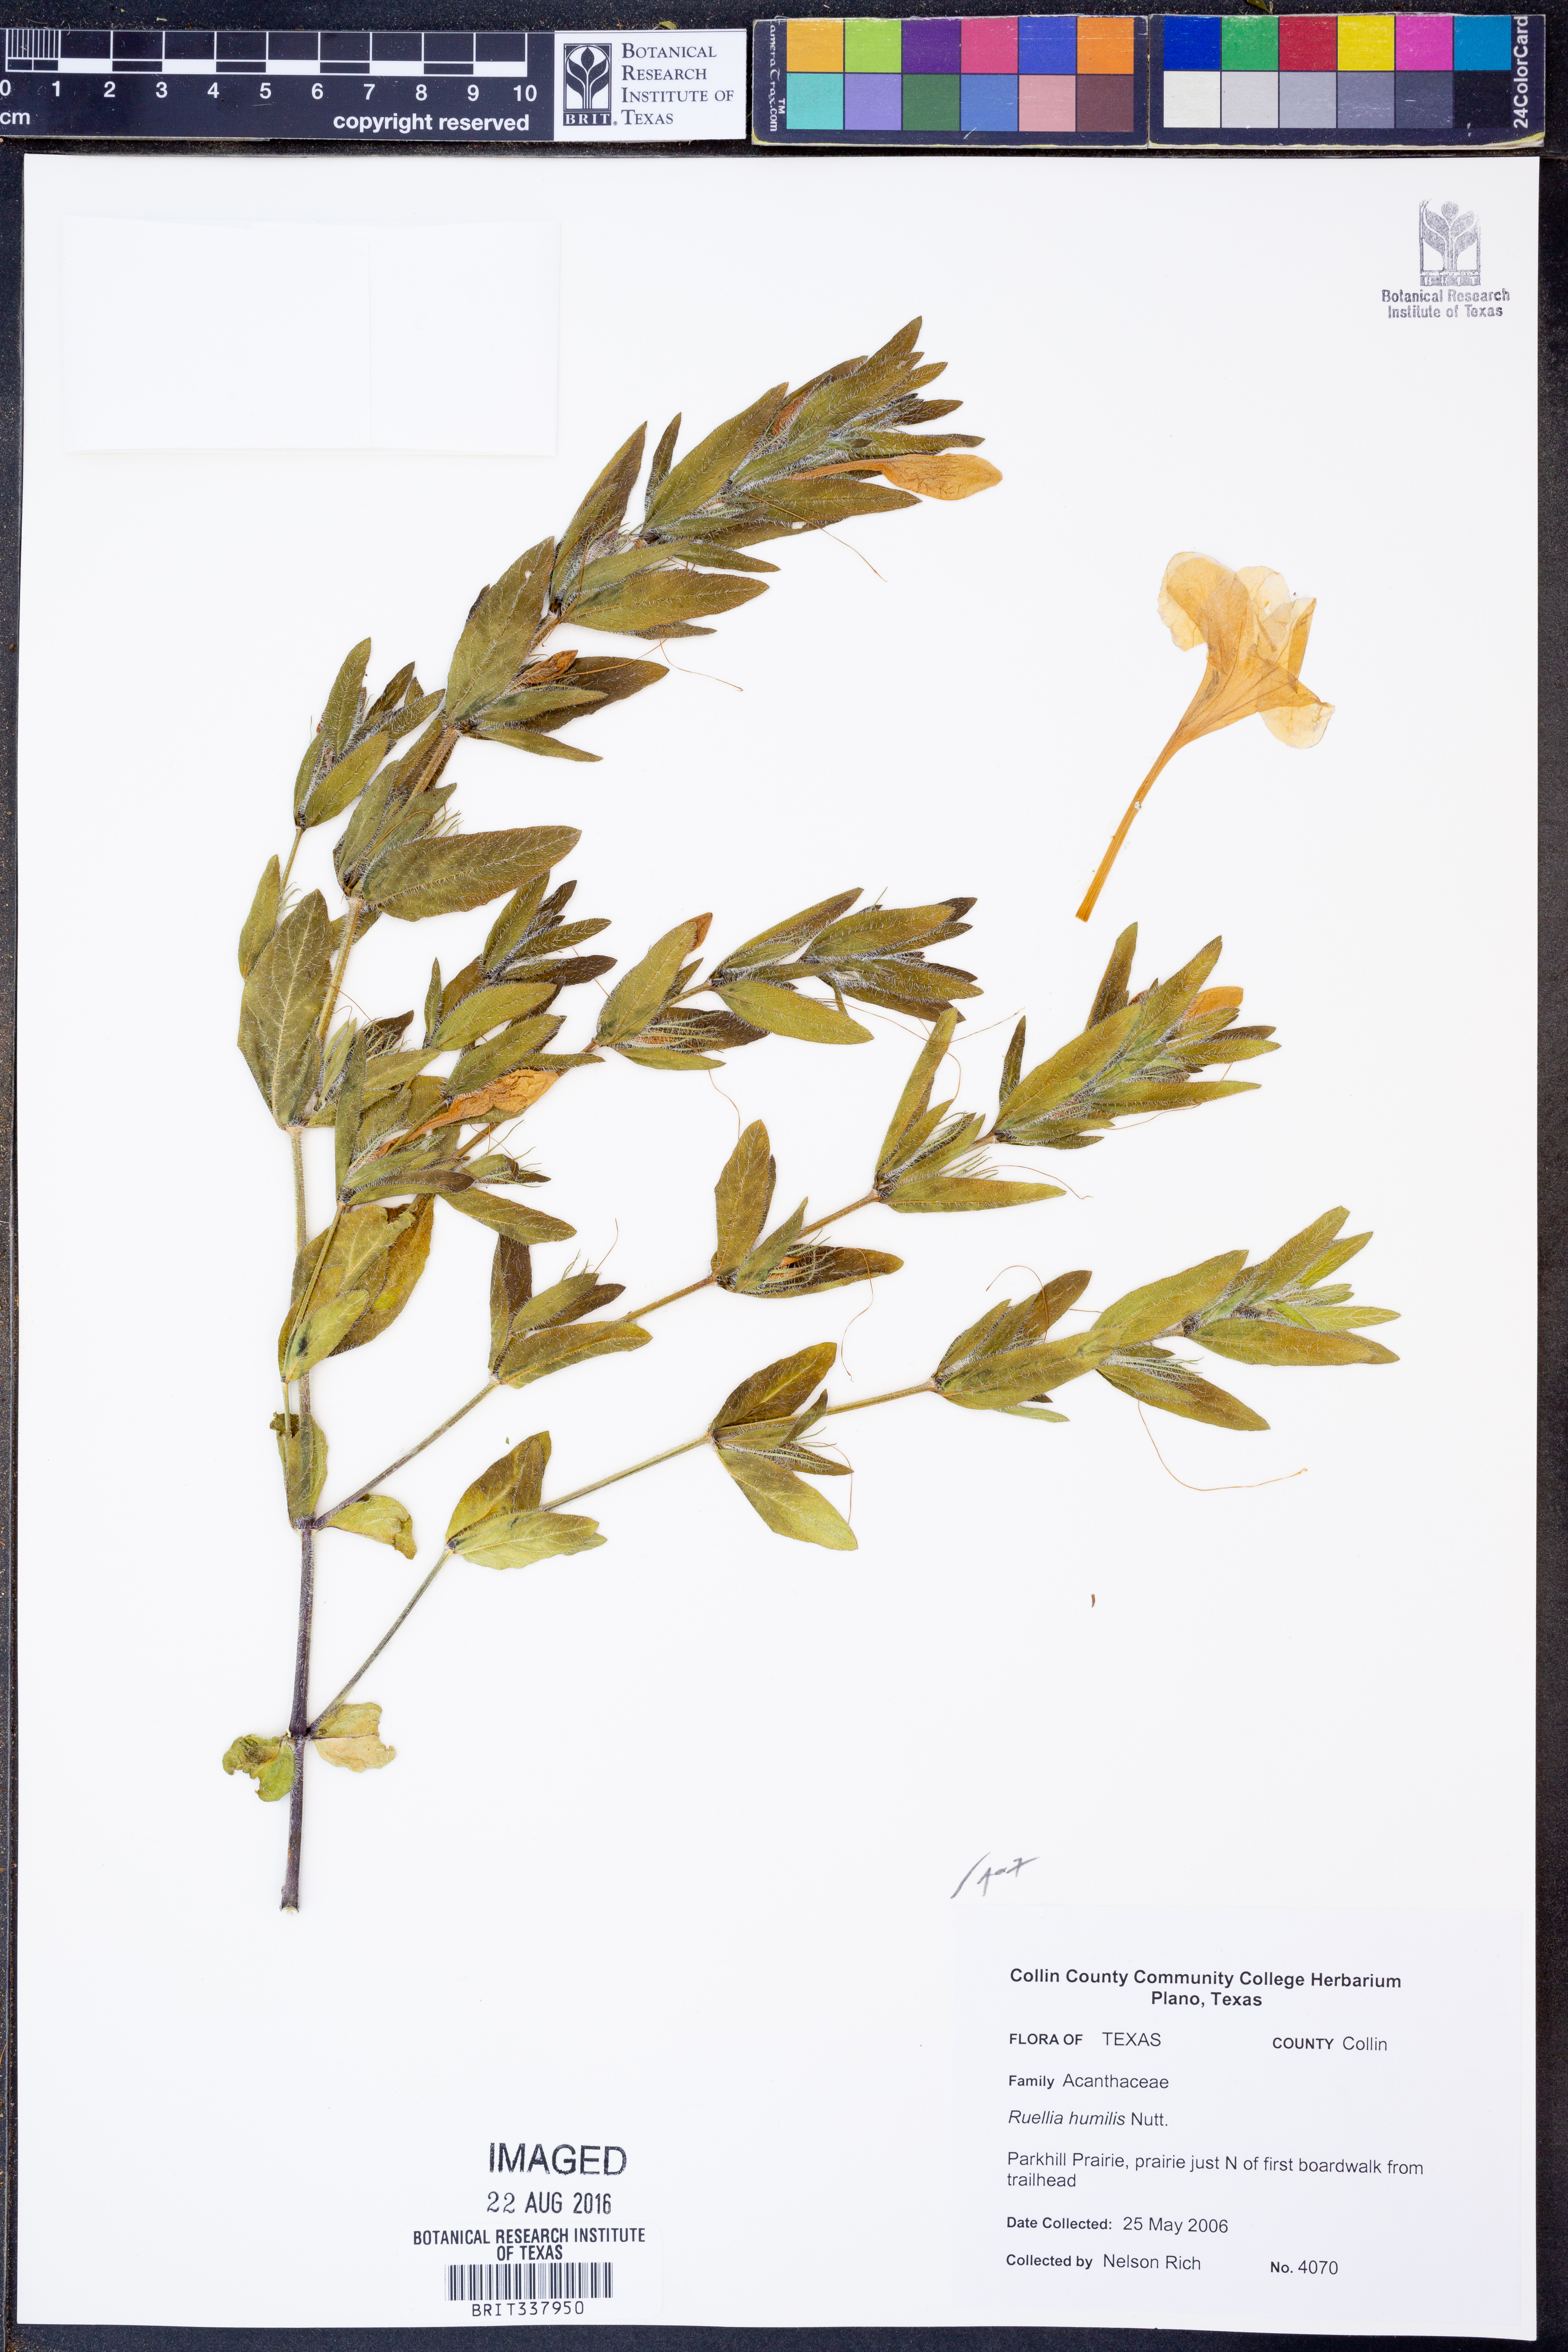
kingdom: Plantae
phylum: Tracheophyta
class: Magnoliopsida
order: Lamiales
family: Acanthaceae
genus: Ruellia
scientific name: Ruellia humilis
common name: Fringe-leaf ruellia
